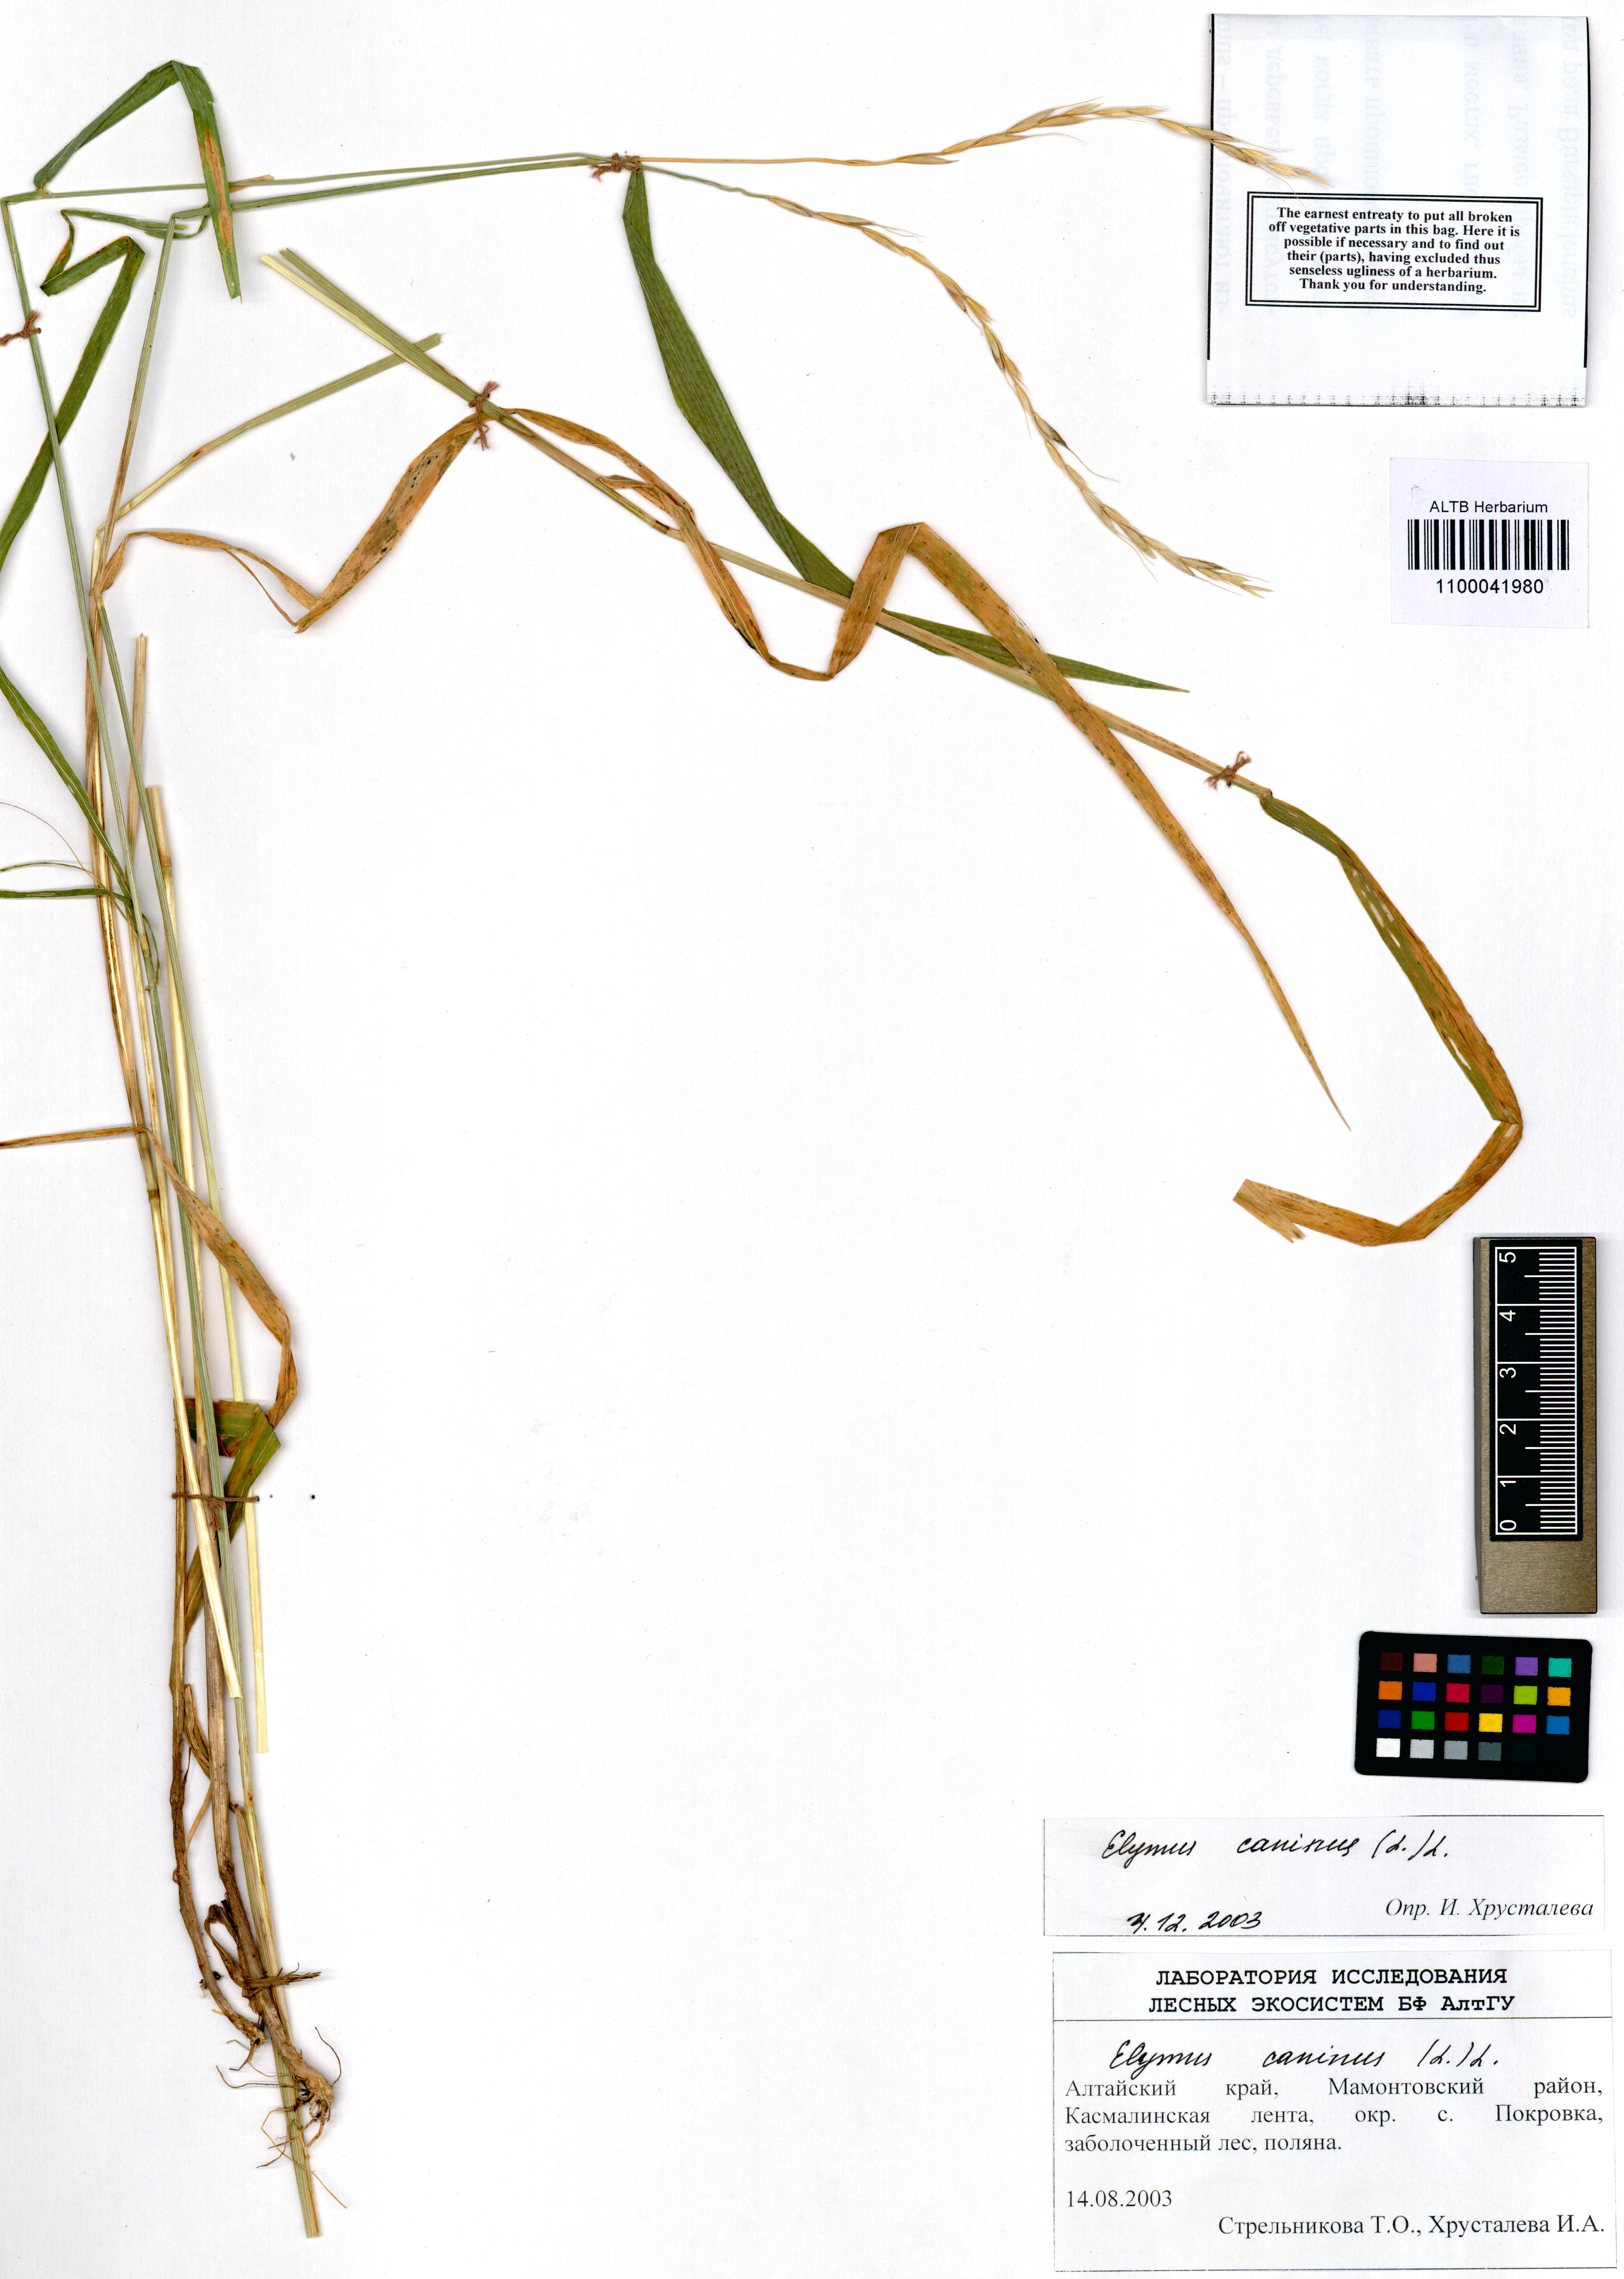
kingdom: Plantae
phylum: Tracheophyta
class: Liliopsida
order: Poales
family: Poaceae
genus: Elymus
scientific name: Elymus caninus
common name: Bearded couch
